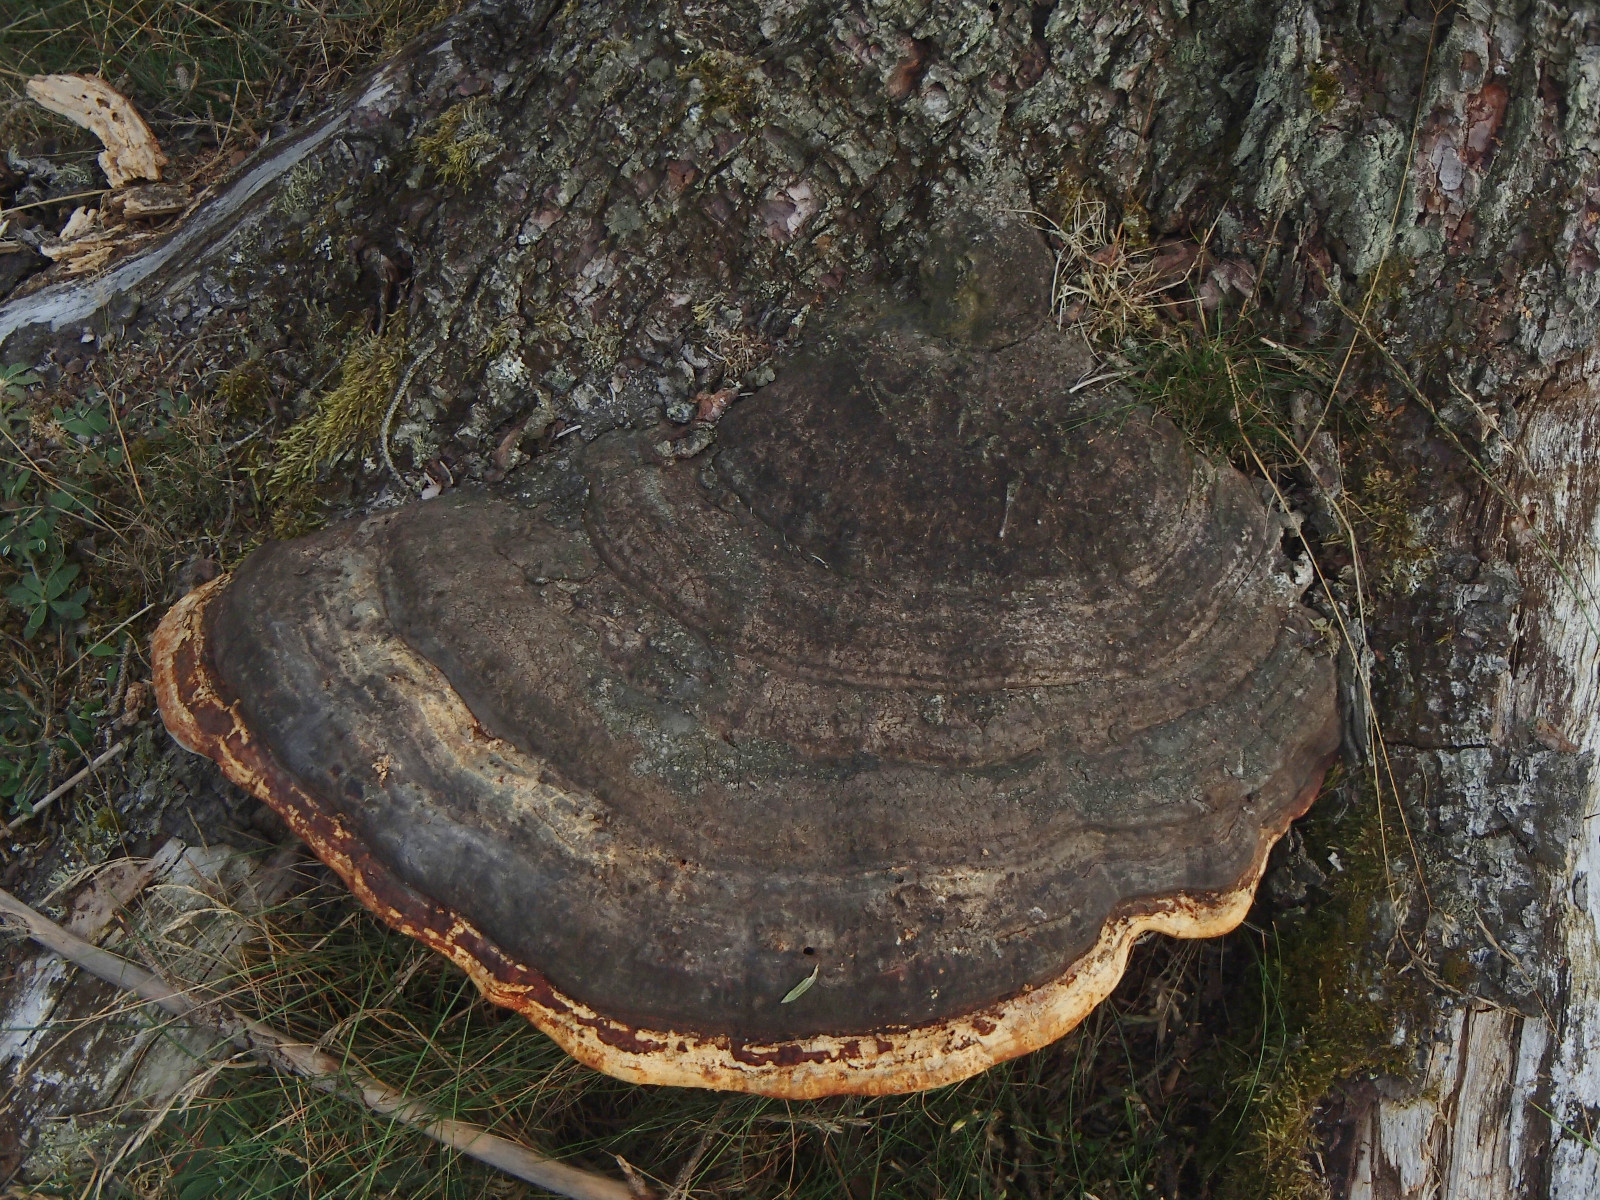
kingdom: Fungi
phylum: Basidiomycota
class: Agaricomycetes
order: Polyporales
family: Fomitopsidaceae
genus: Fomitopsis
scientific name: Fomitopsis pinicola
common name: randbæltet hovporesvamp
